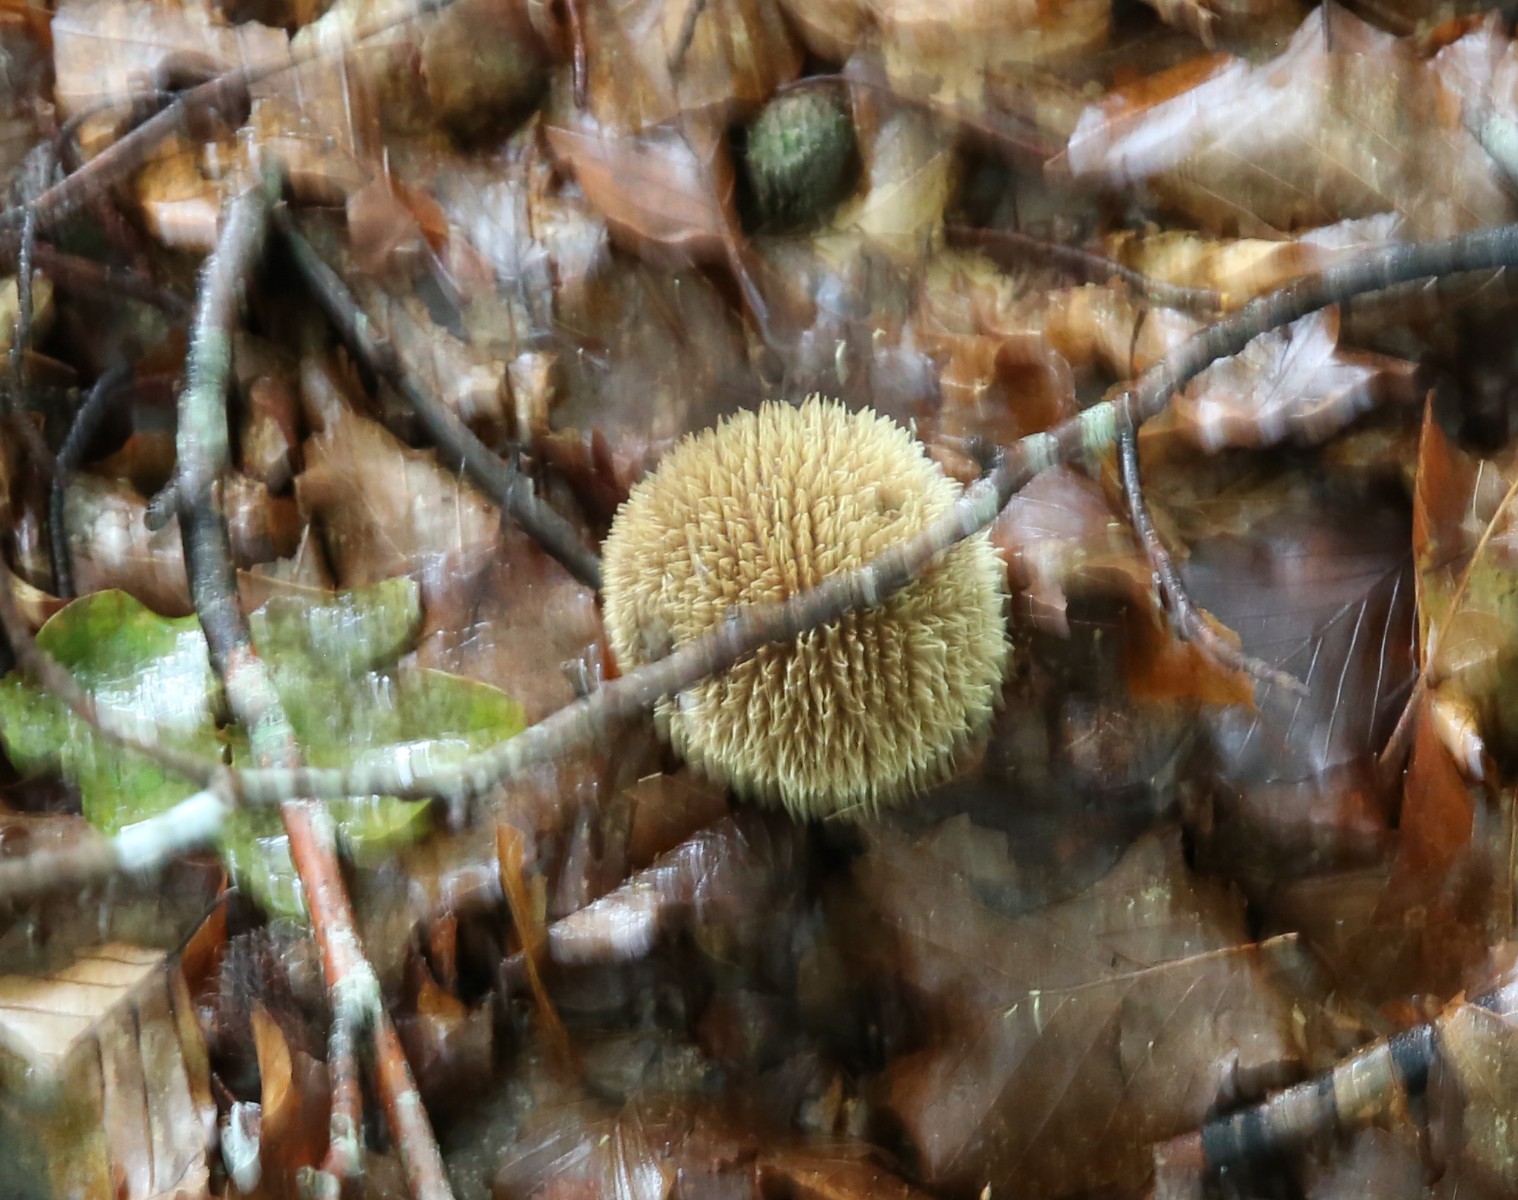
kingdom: Fungi
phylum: Basidiomycota
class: Agaricomycetes
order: Agaricales
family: Lycoperdaceae
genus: Lycoperdon
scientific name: Lycoperdon echinatum
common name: pindsvine-støvbold
